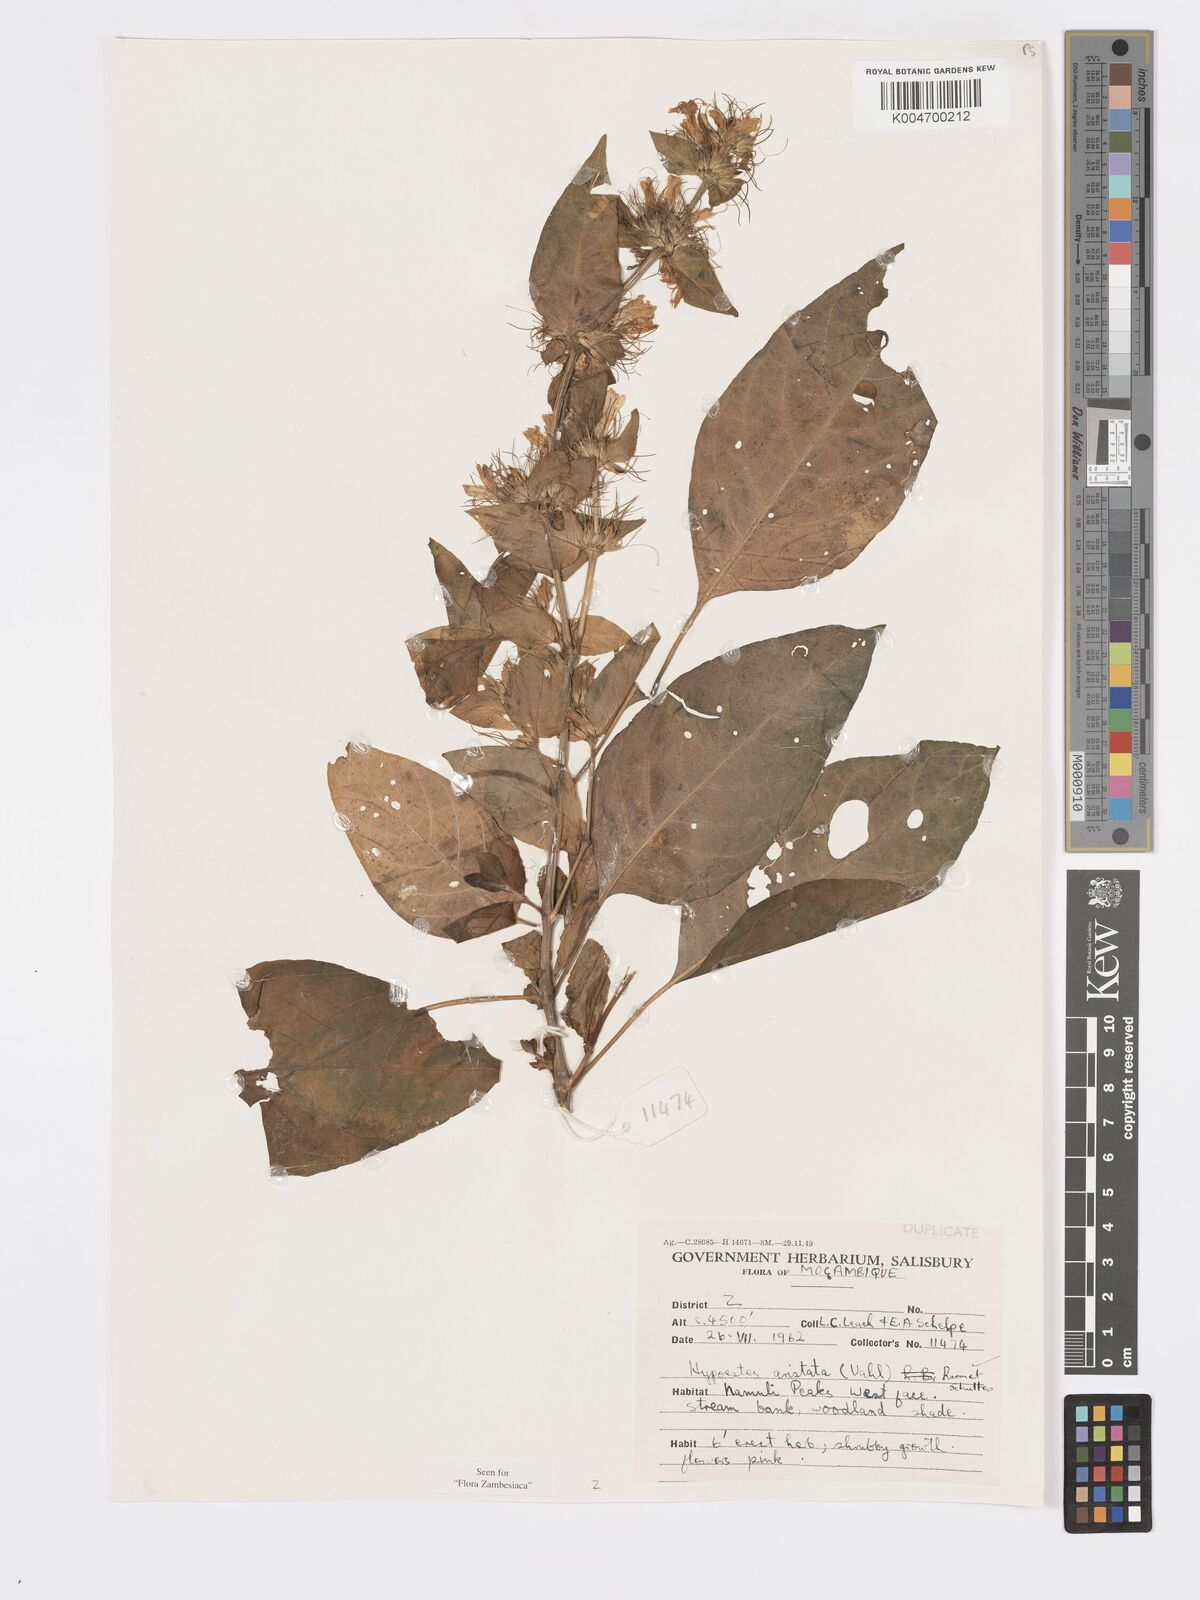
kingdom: Plantae
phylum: Tracheophyta
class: Magnoliopsida
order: Lamiales
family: Acanthaceae
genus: Hypoestes
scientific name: Hypoestes aristata
